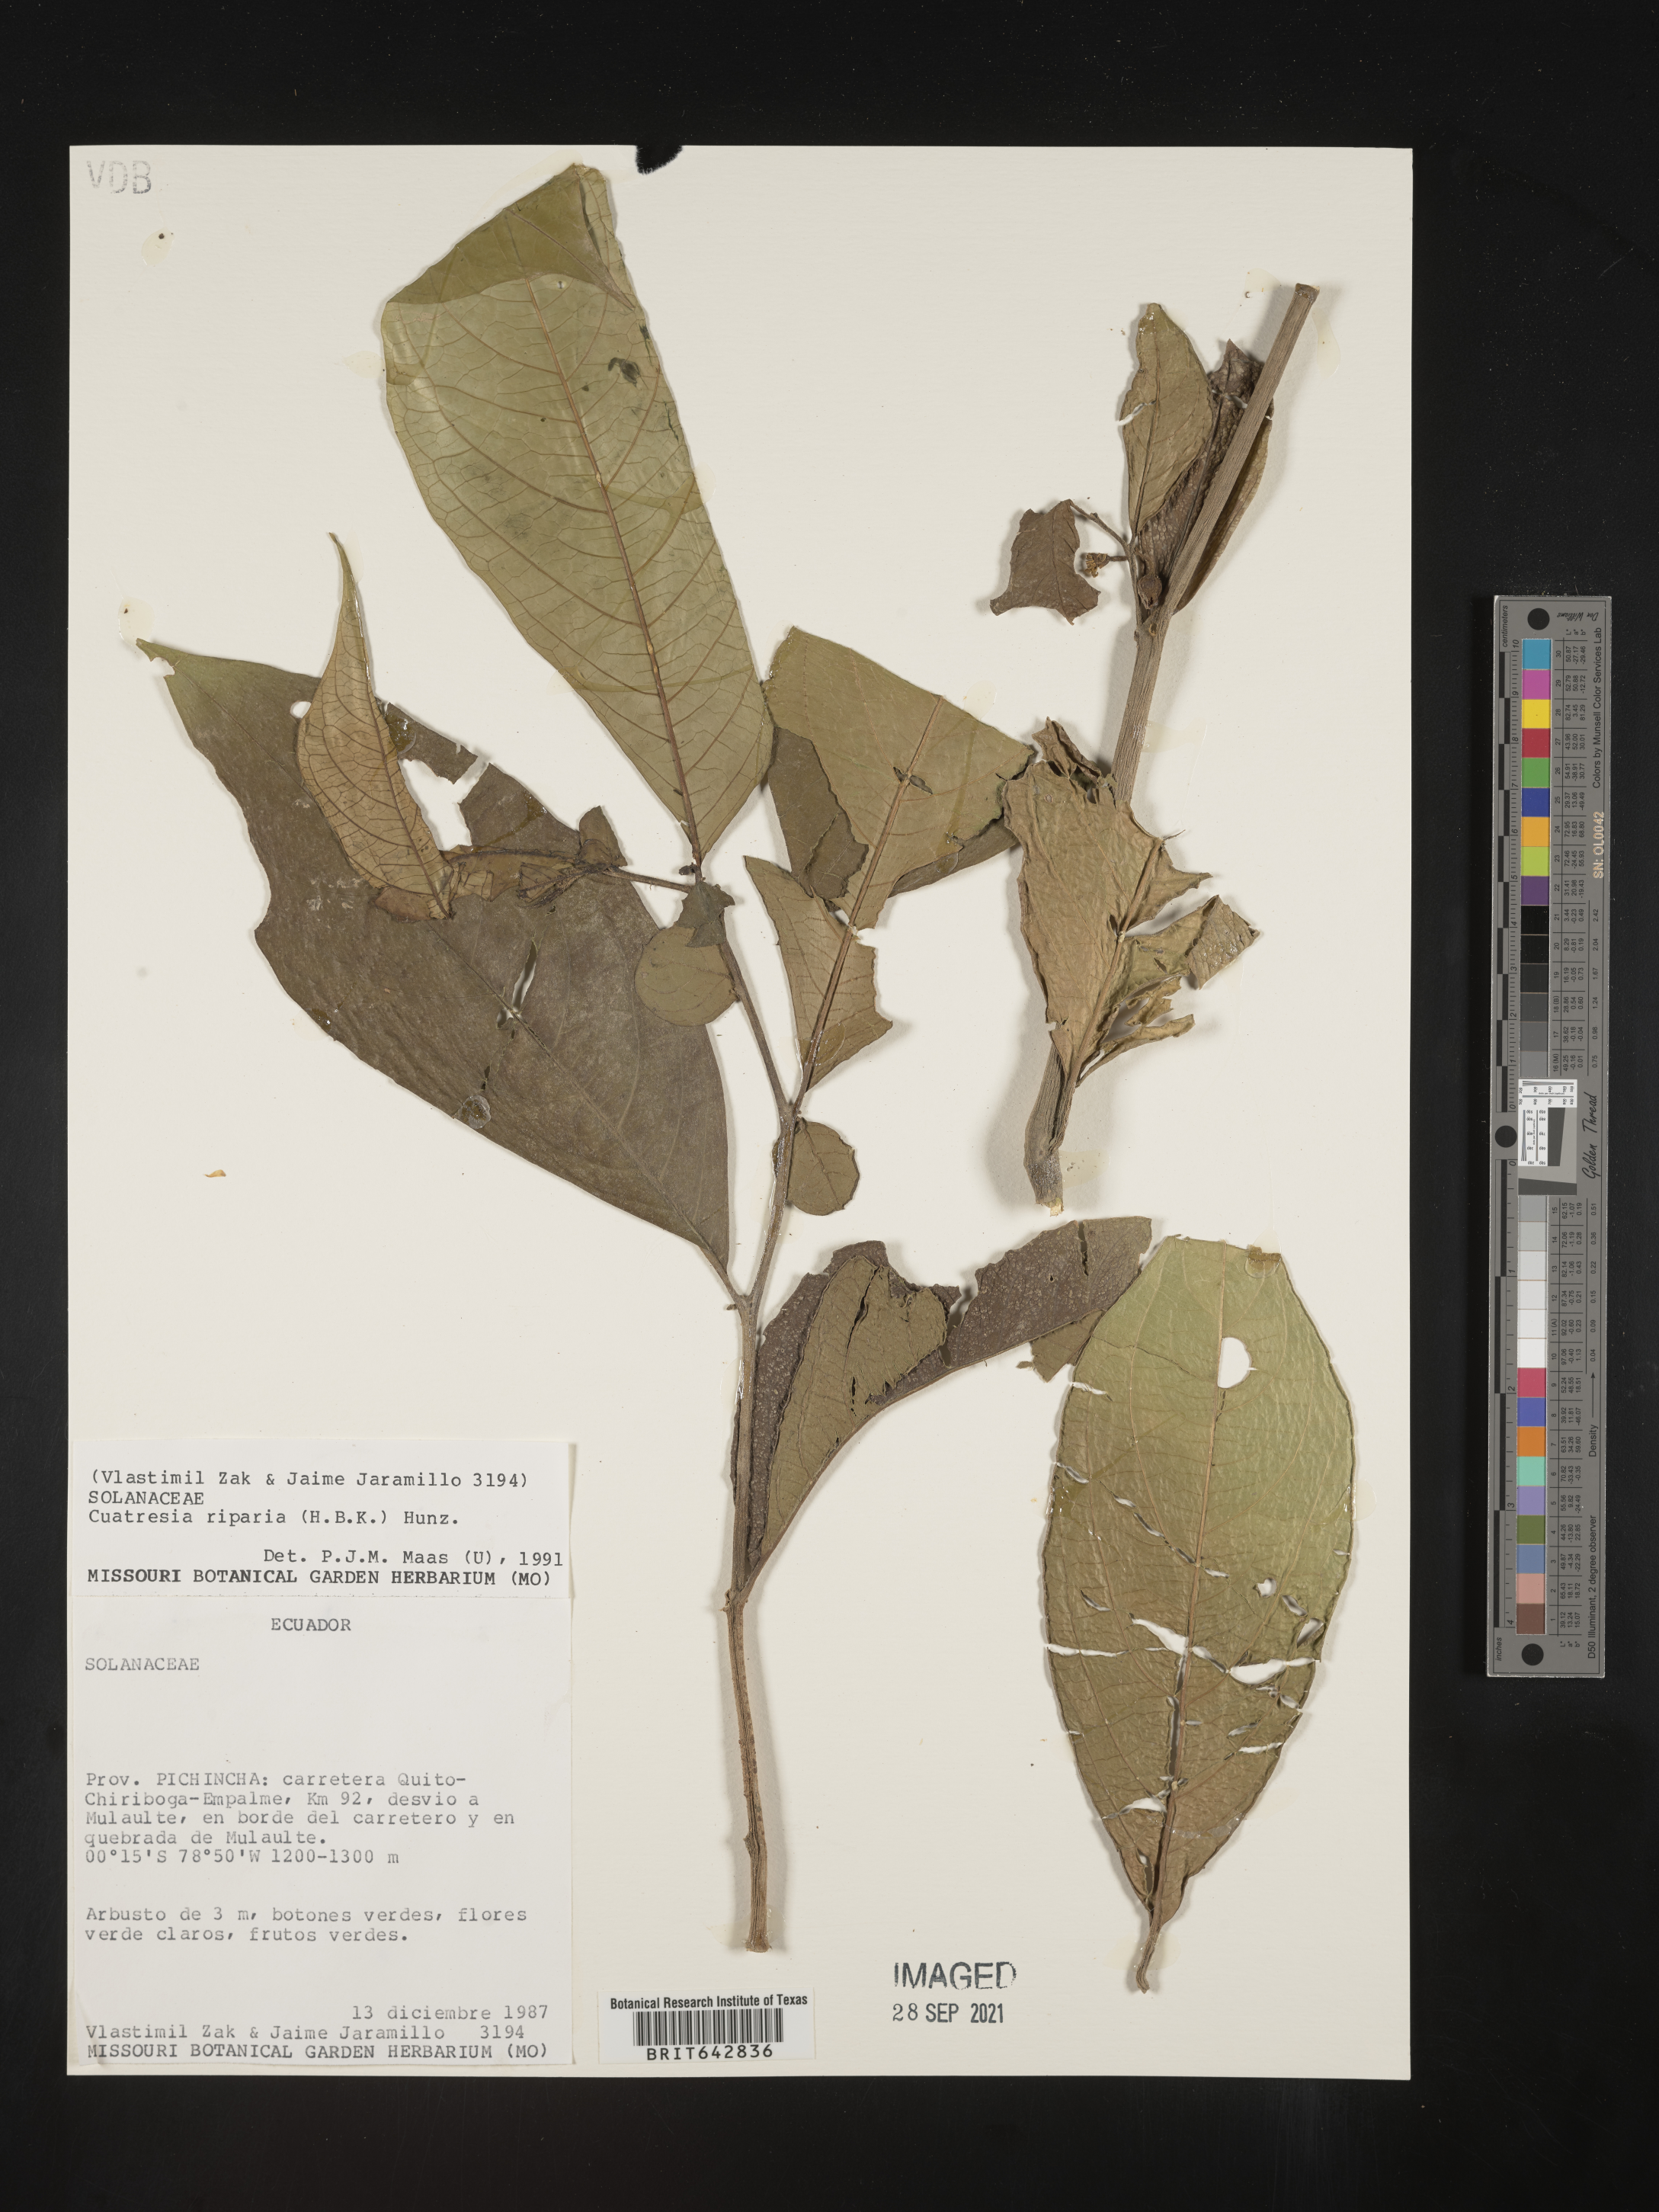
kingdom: Plantae
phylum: Tracheophyta
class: Magnoliopsida
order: Solanales
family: Solanaceae
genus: Cuatresia
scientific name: Cuatresia
